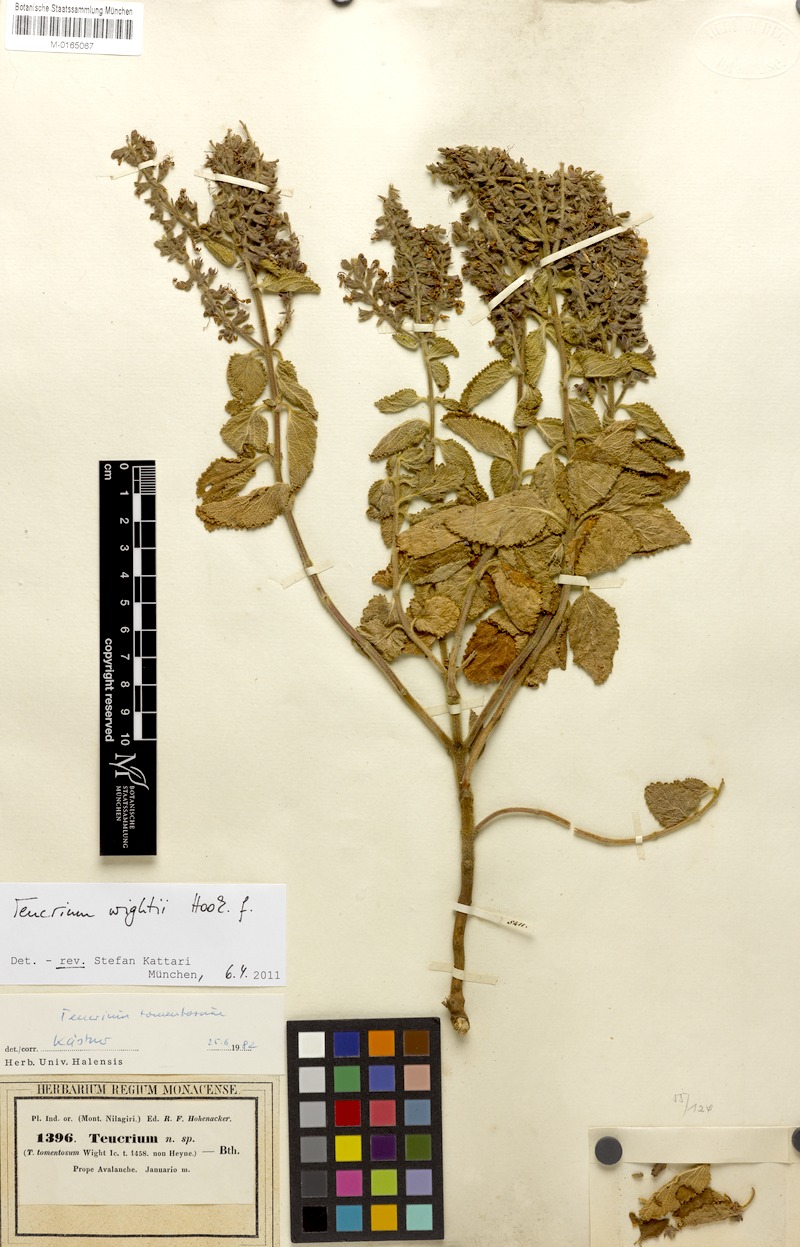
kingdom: Plantae
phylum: Tracheophyta
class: Magnoliopsida
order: Lamiales
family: Lamiaceae
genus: Teucrium
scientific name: Teucrium wightii
